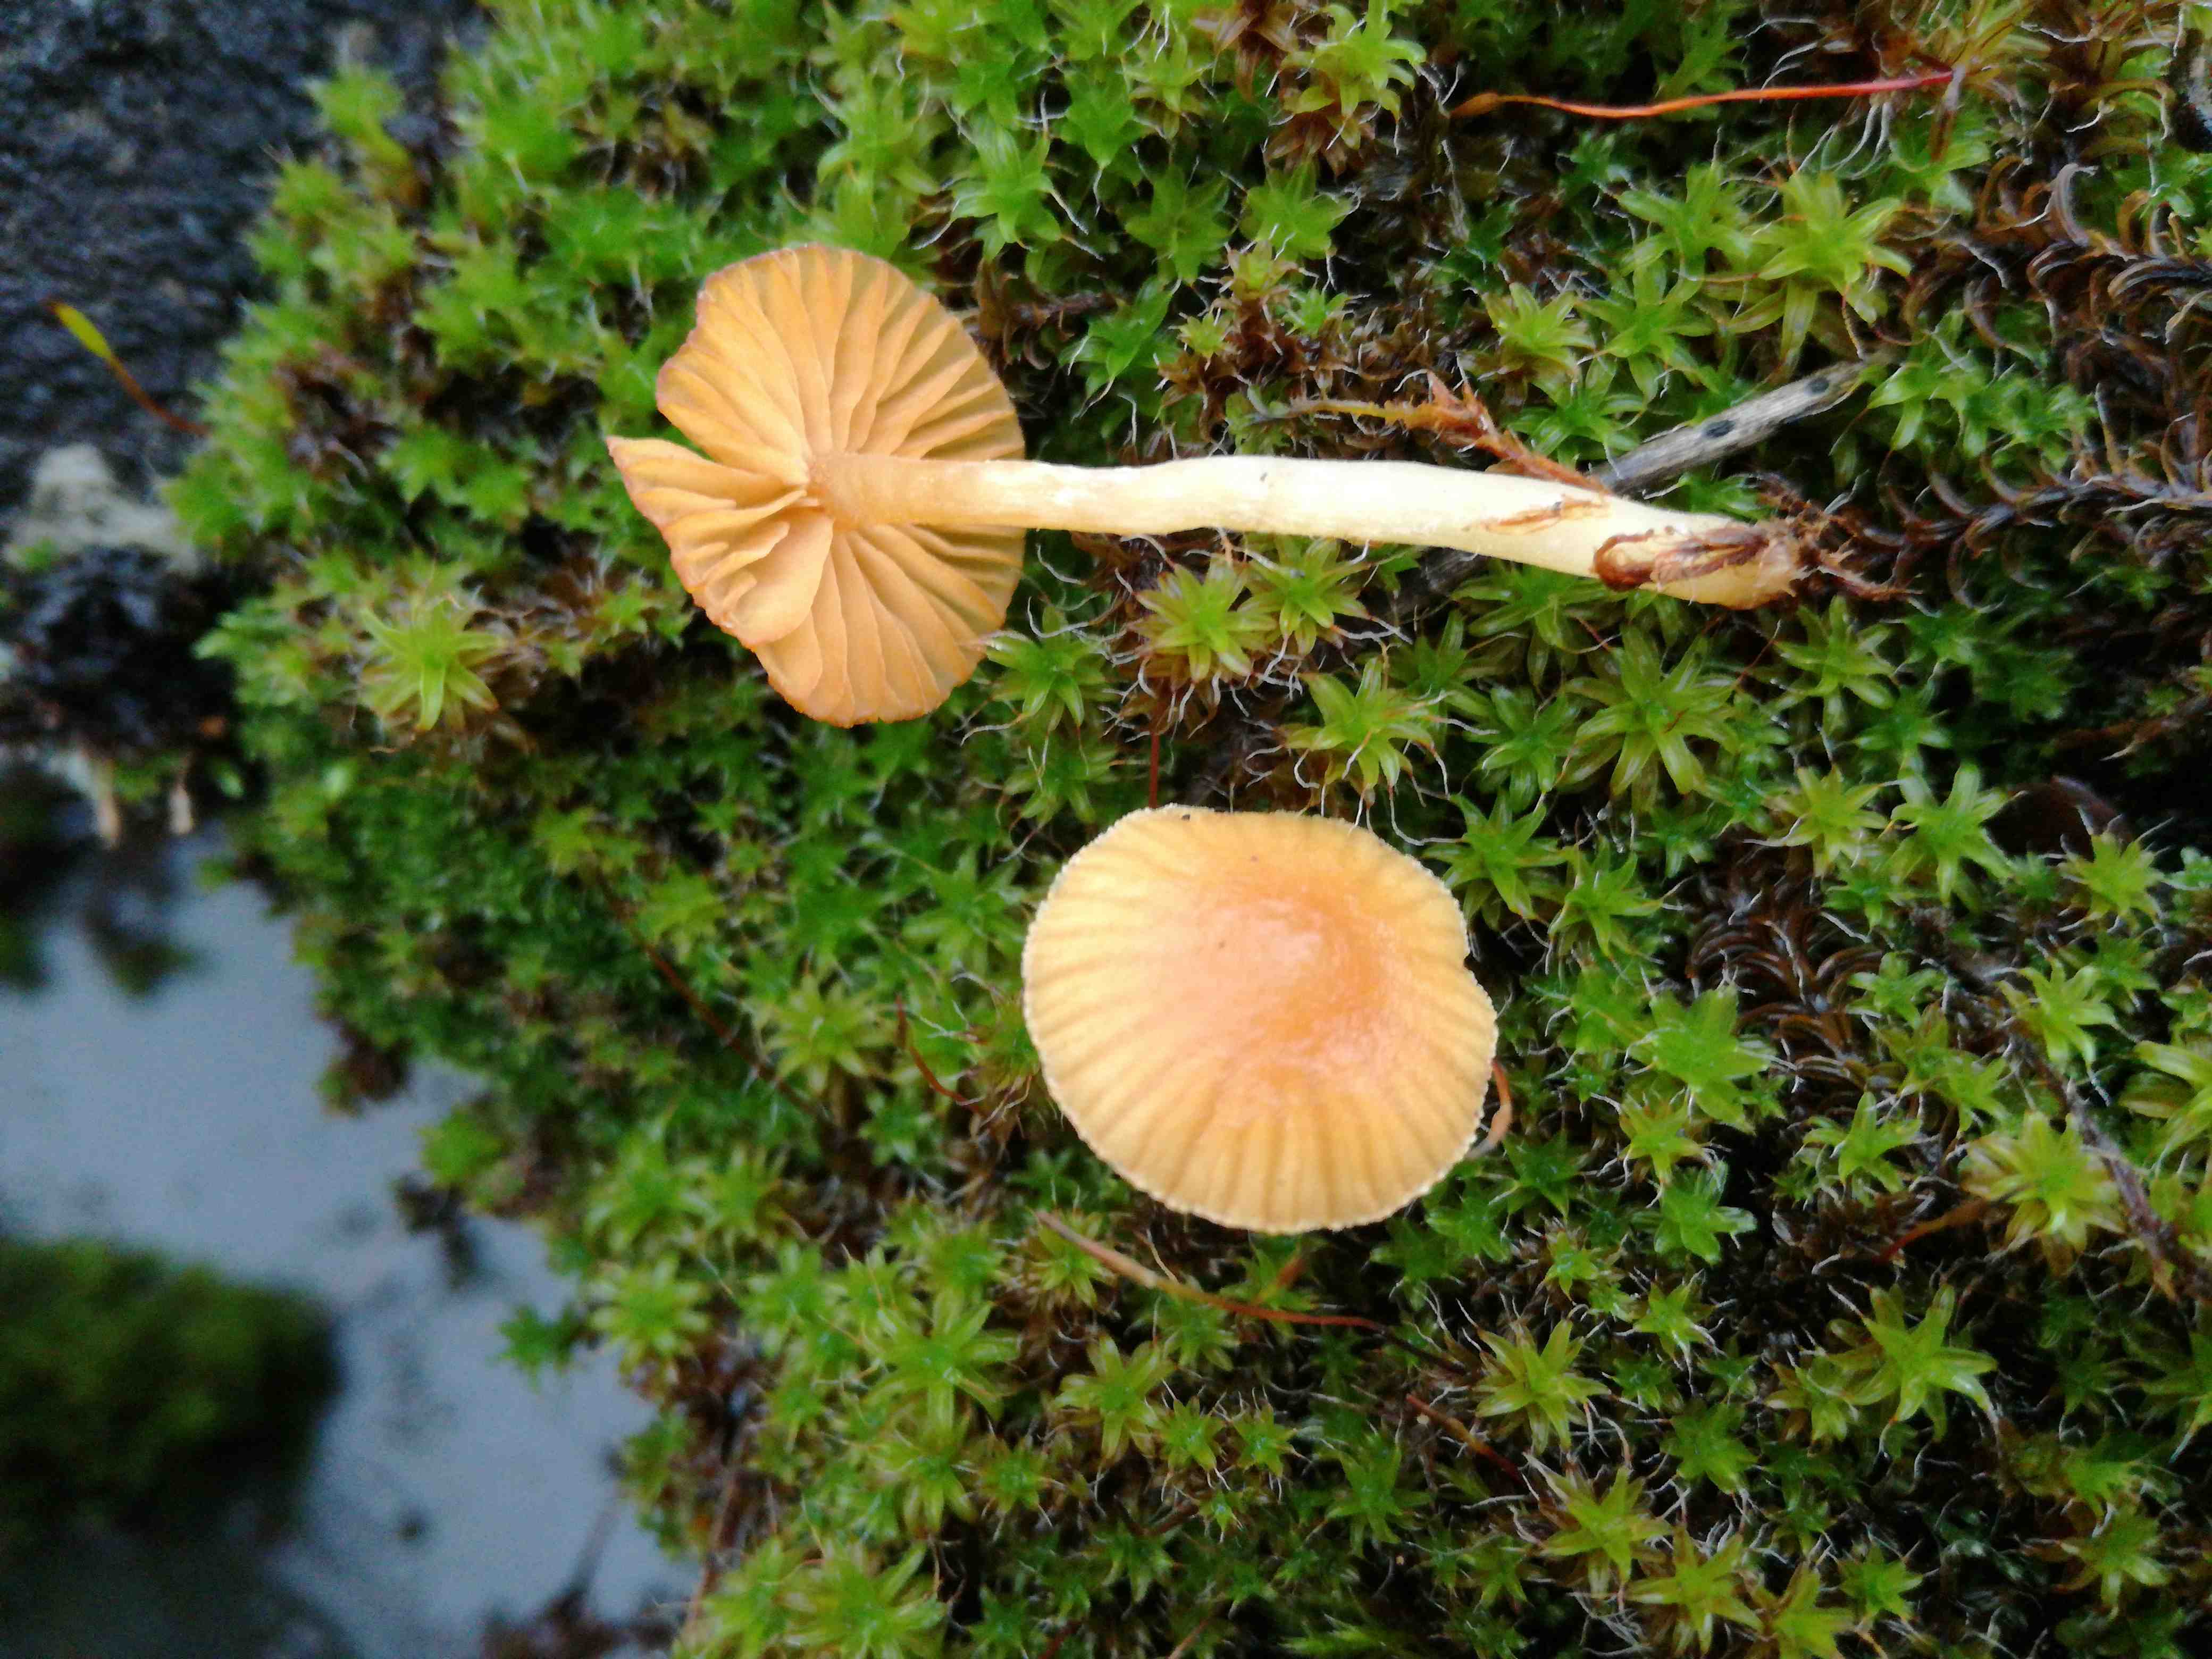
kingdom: Fungi
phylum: Basidiomycota
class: Agaricomycetes
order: Agaricales
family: Hymenogastraceae
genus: Galerina
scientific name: Galerina
